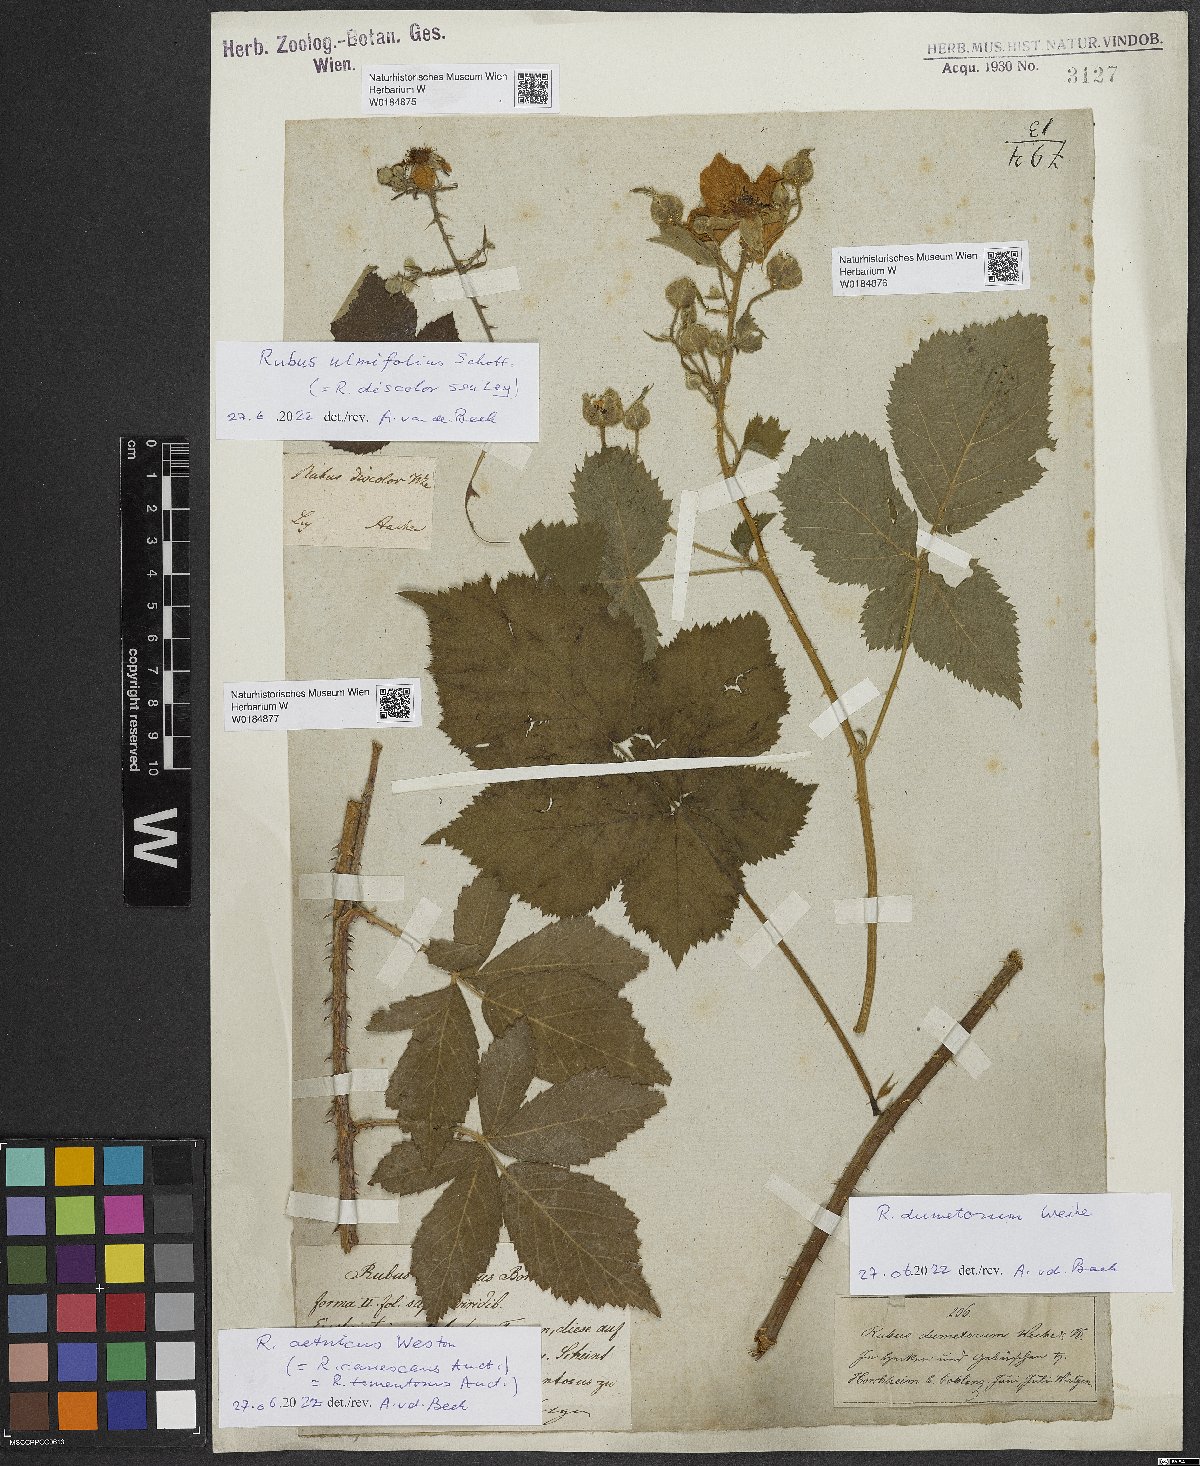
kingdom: Plantae
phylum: Tracheophyta
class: Magnoliopsida
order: Rosales
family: Rosaceae
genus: Rubus
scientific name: Rubus nemorosus
